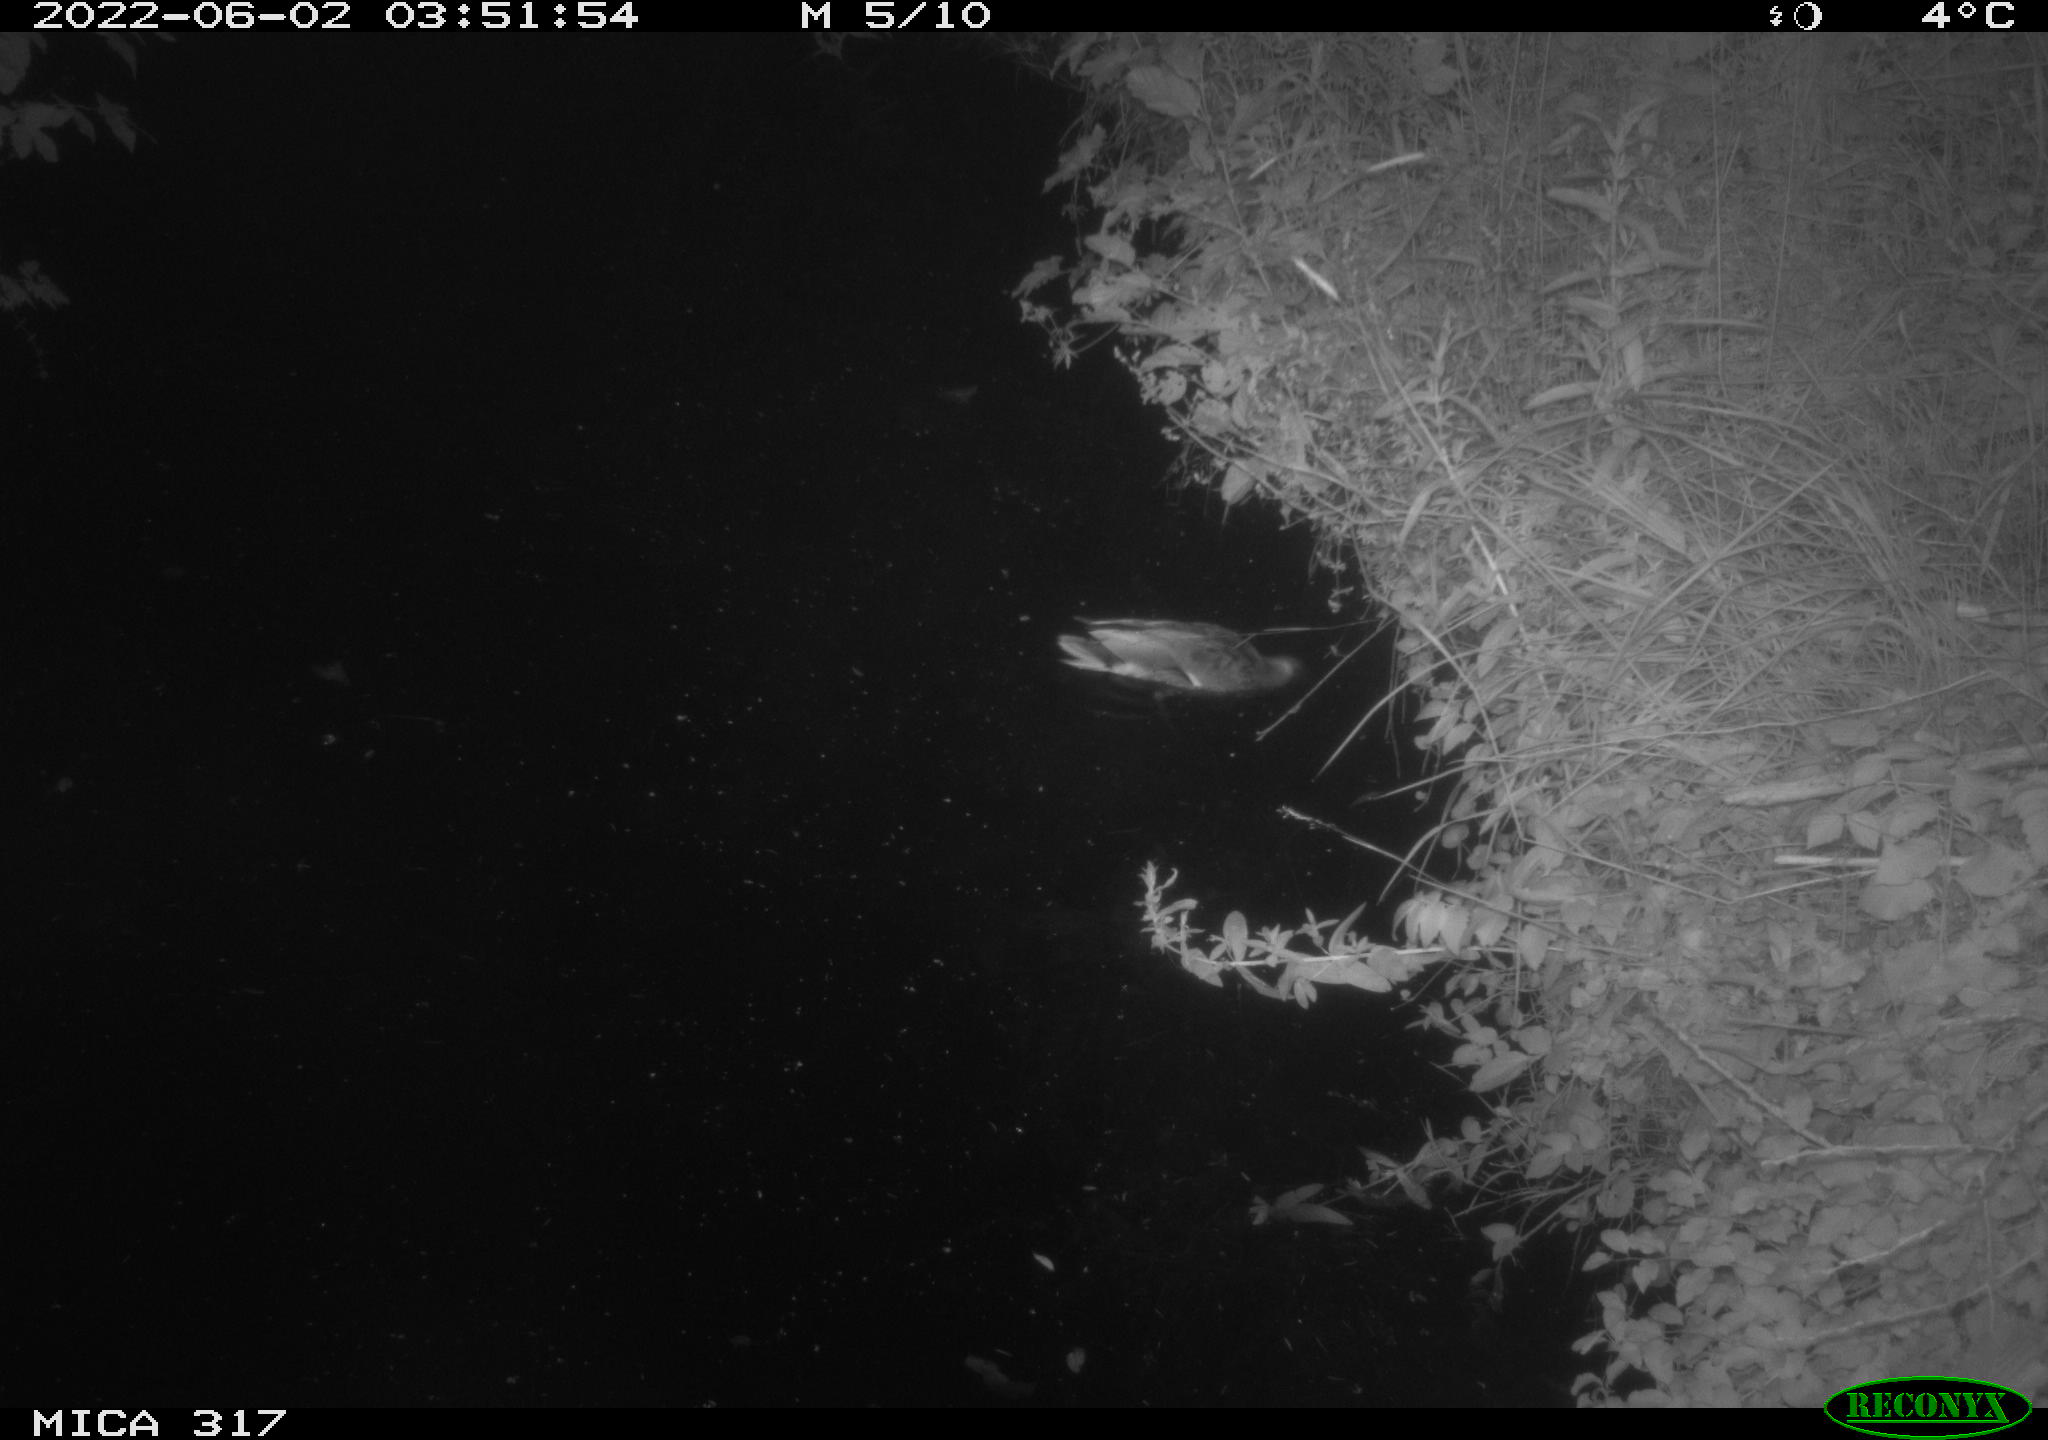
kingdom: Animalia
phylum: Chordata
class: Aves
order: Anseriformes
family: Anatidae
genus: Anas
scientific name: Anas
